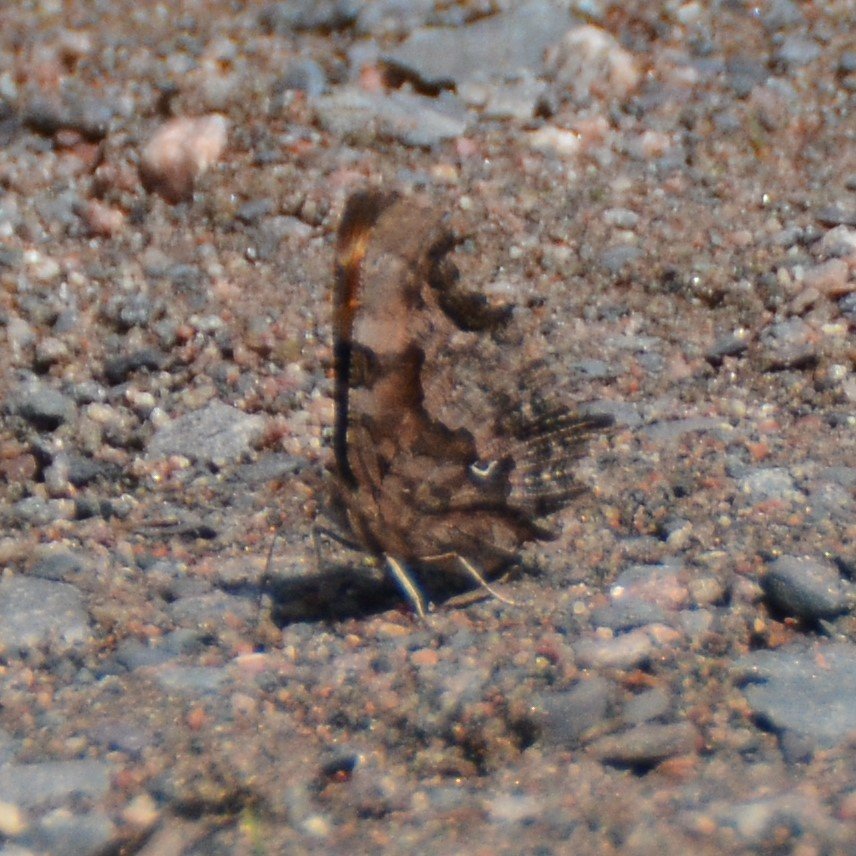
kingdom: Animalia
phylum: Arthropoda
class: Insecta
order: Lepidoptera
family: Nymphalidae
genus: Polygonia
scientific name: Polygonia faunus
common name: Green Comma
